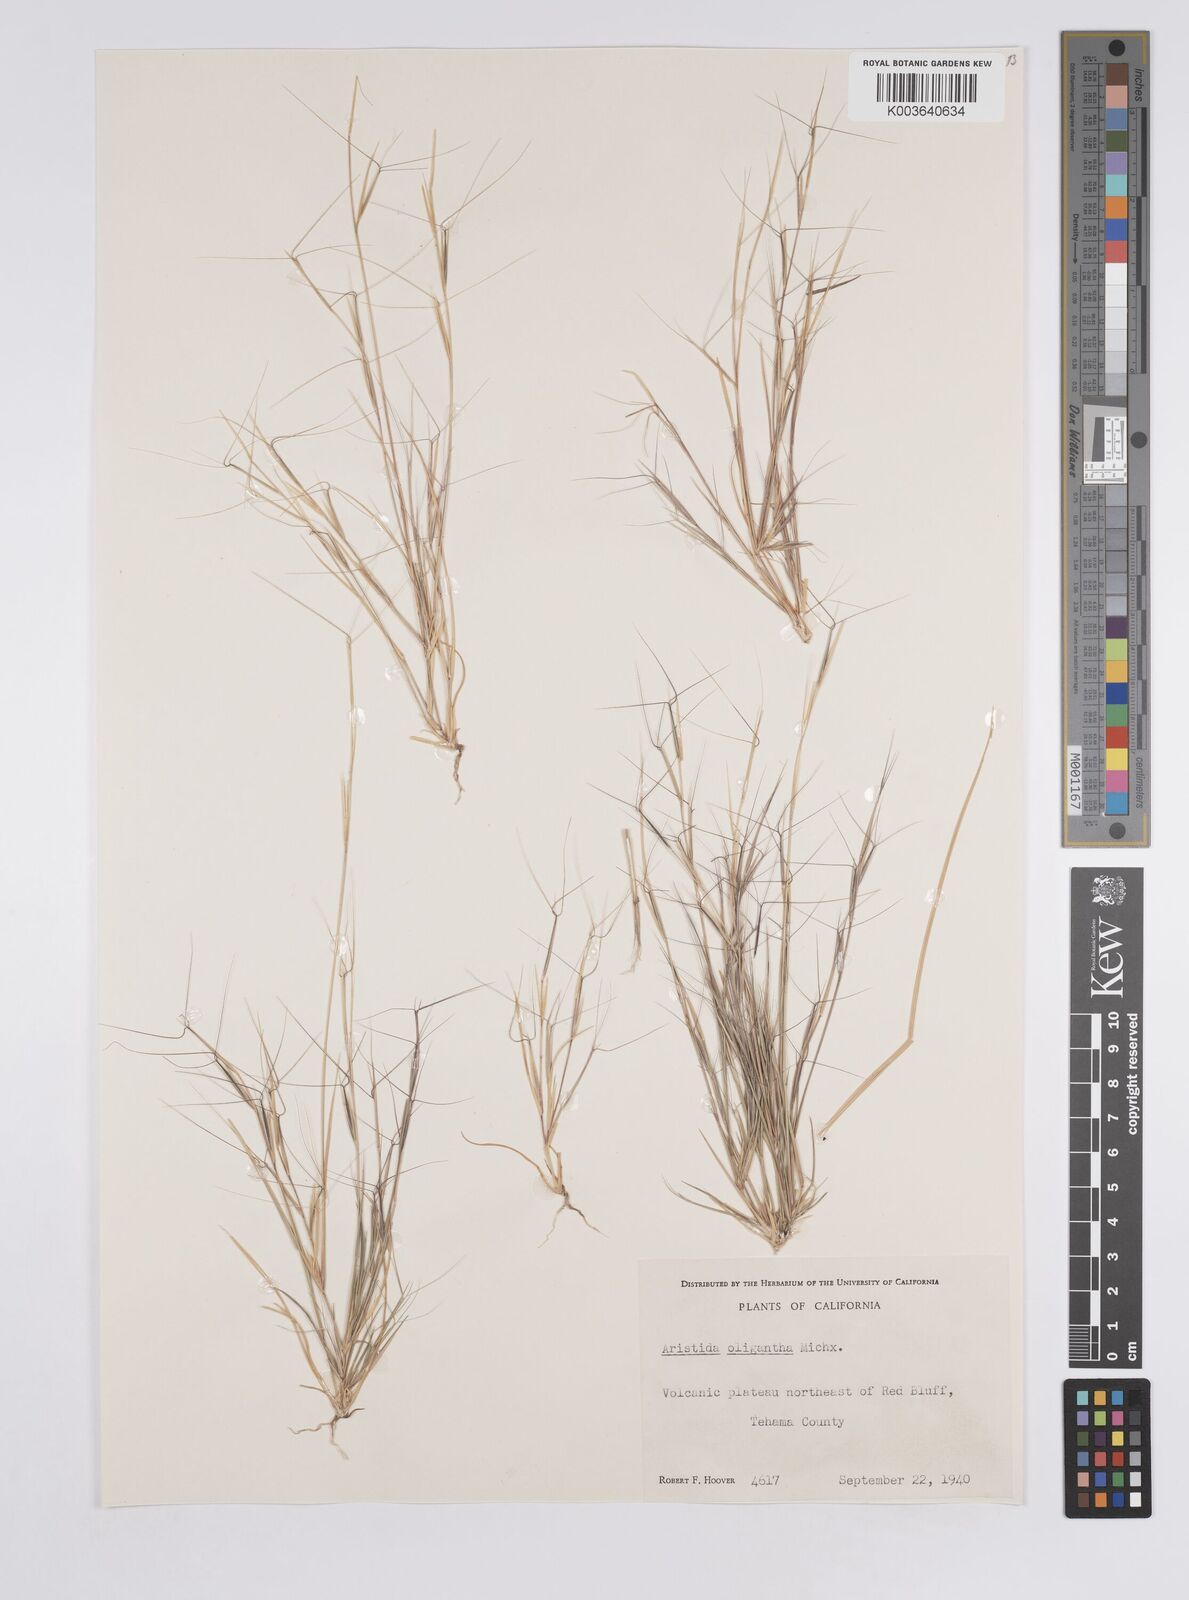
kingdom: Plantae
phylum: Tracheophyta
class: Liliopsida
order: Poales
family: Poaceae
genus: Aristida
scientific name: Aristida oligantha
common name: Few-flowered aristida
